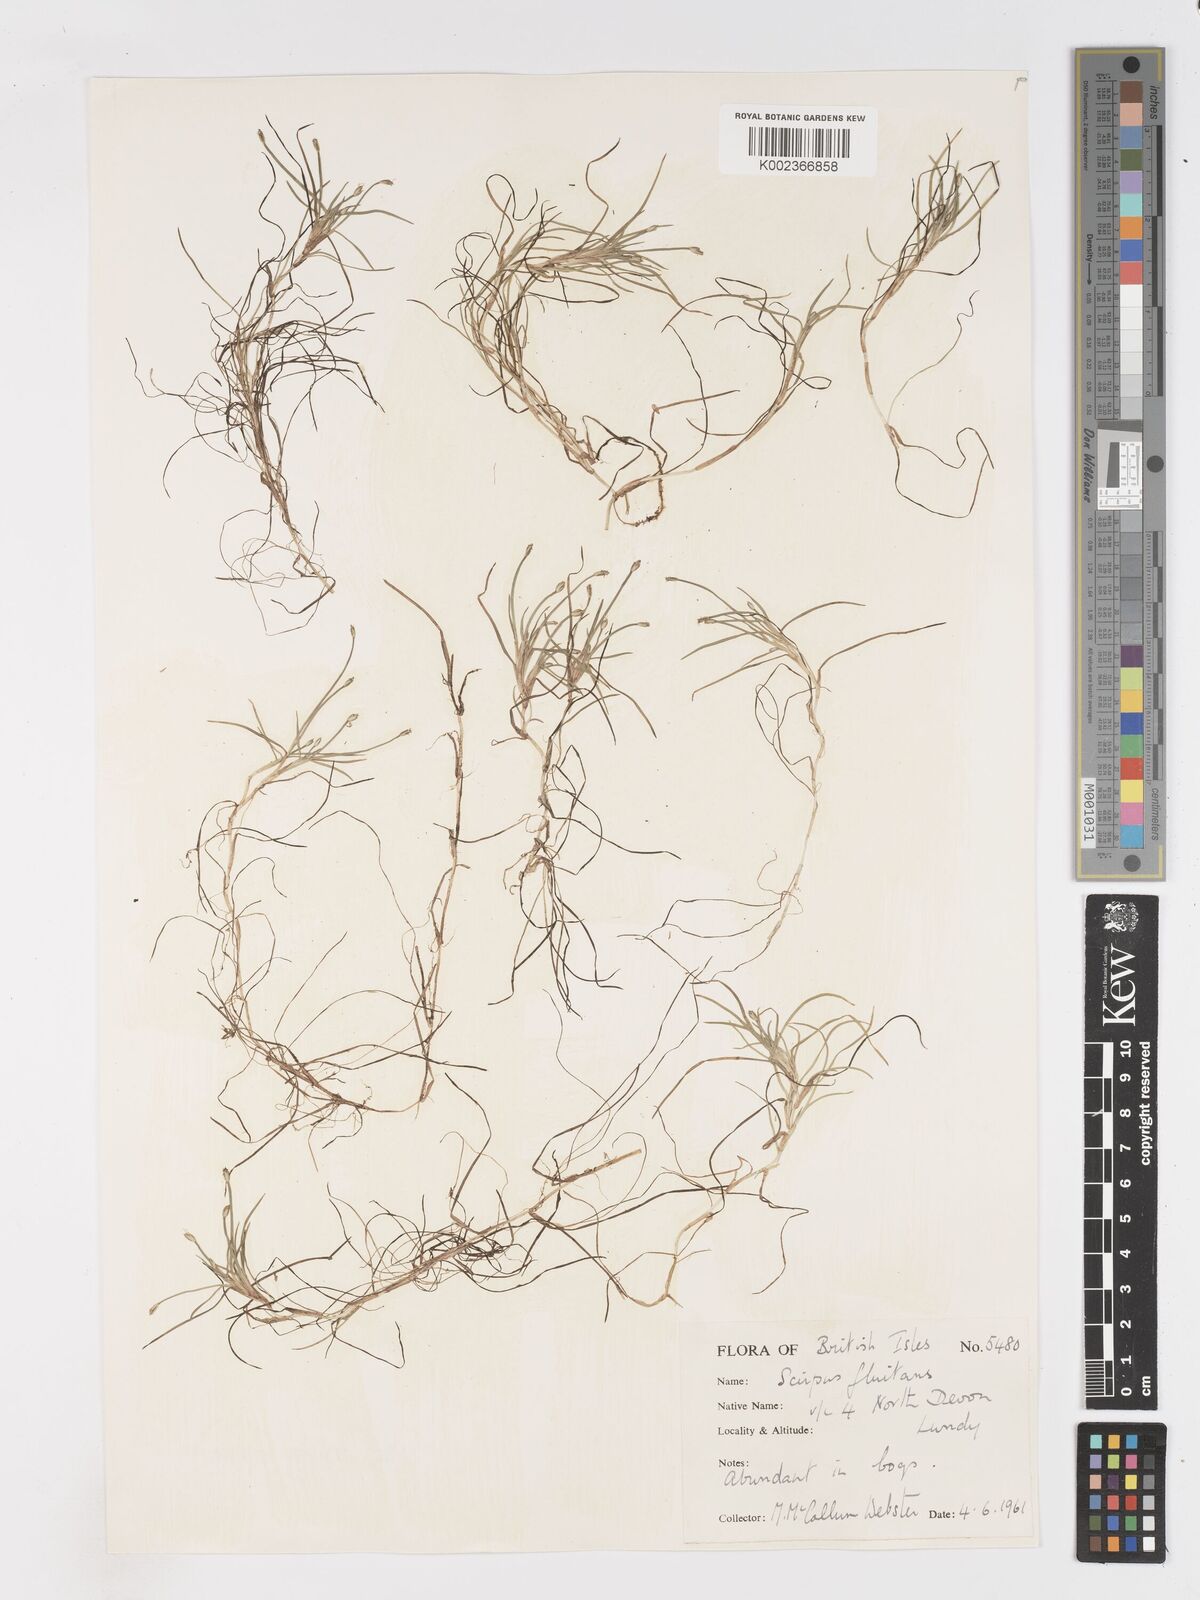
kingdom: Plantae
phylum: Tracheophyta
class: Liliopsida
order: Poales
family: Cyperaceae
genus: Isolepis
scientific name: Isolepis fluitans
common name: Floating club-rush
